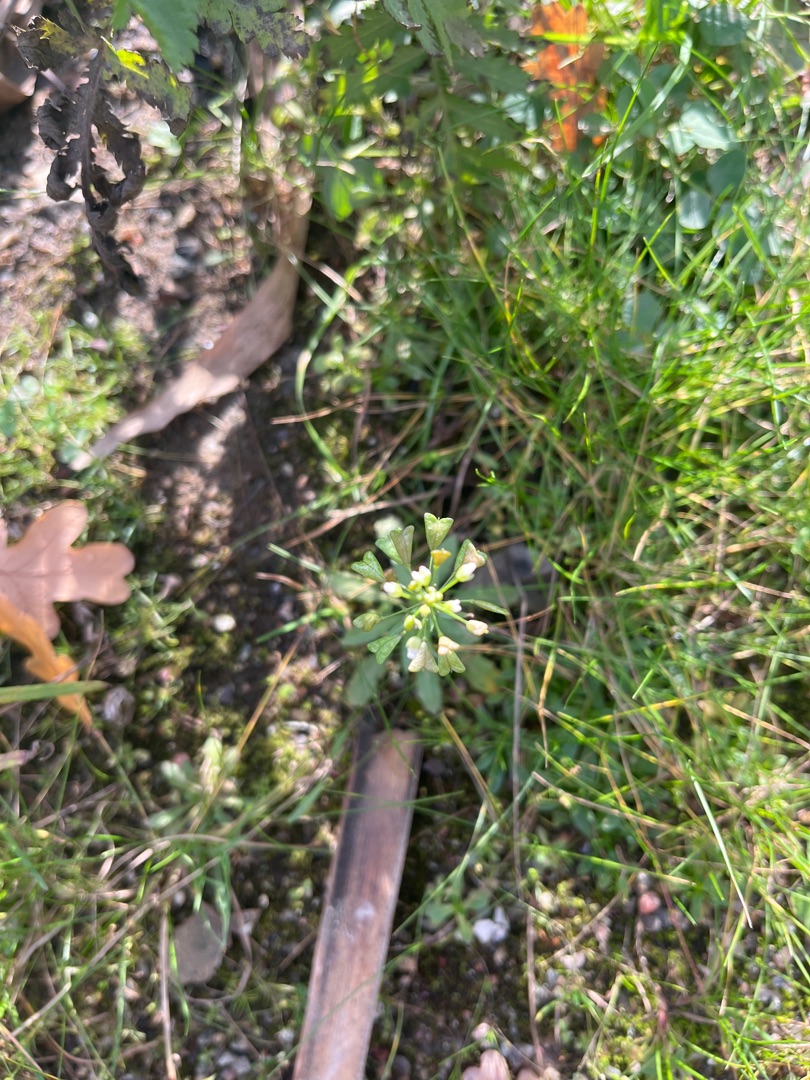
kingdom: Plantae
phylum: Tracheophyta
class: Magnoliopsida
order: Brassicales
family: Brassicaceae
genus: Capsella
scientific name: Capsella bursa-pastoris
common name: Hyrdetaske
